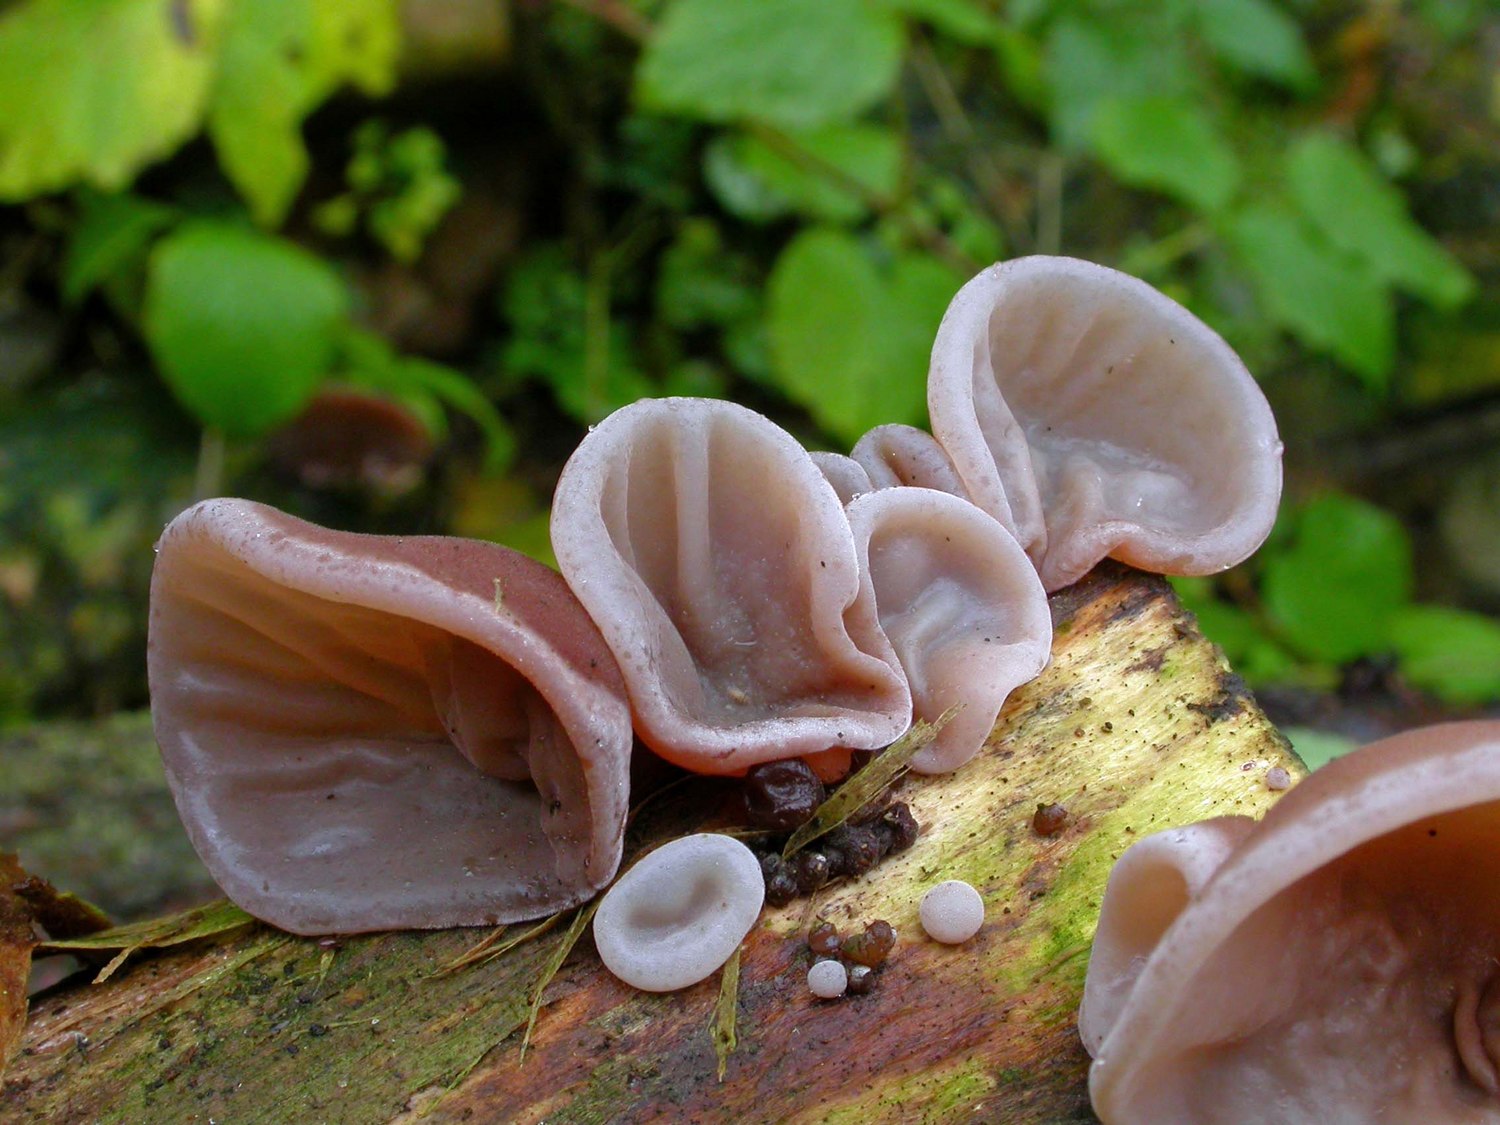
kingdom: Fungi
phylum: Basidiomycota
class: Agaricomycetes
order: Auriculariales
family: Auriculariaceae
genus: Auricularia
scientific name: Auricularia auricula-judae
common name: almindelig judasøre
